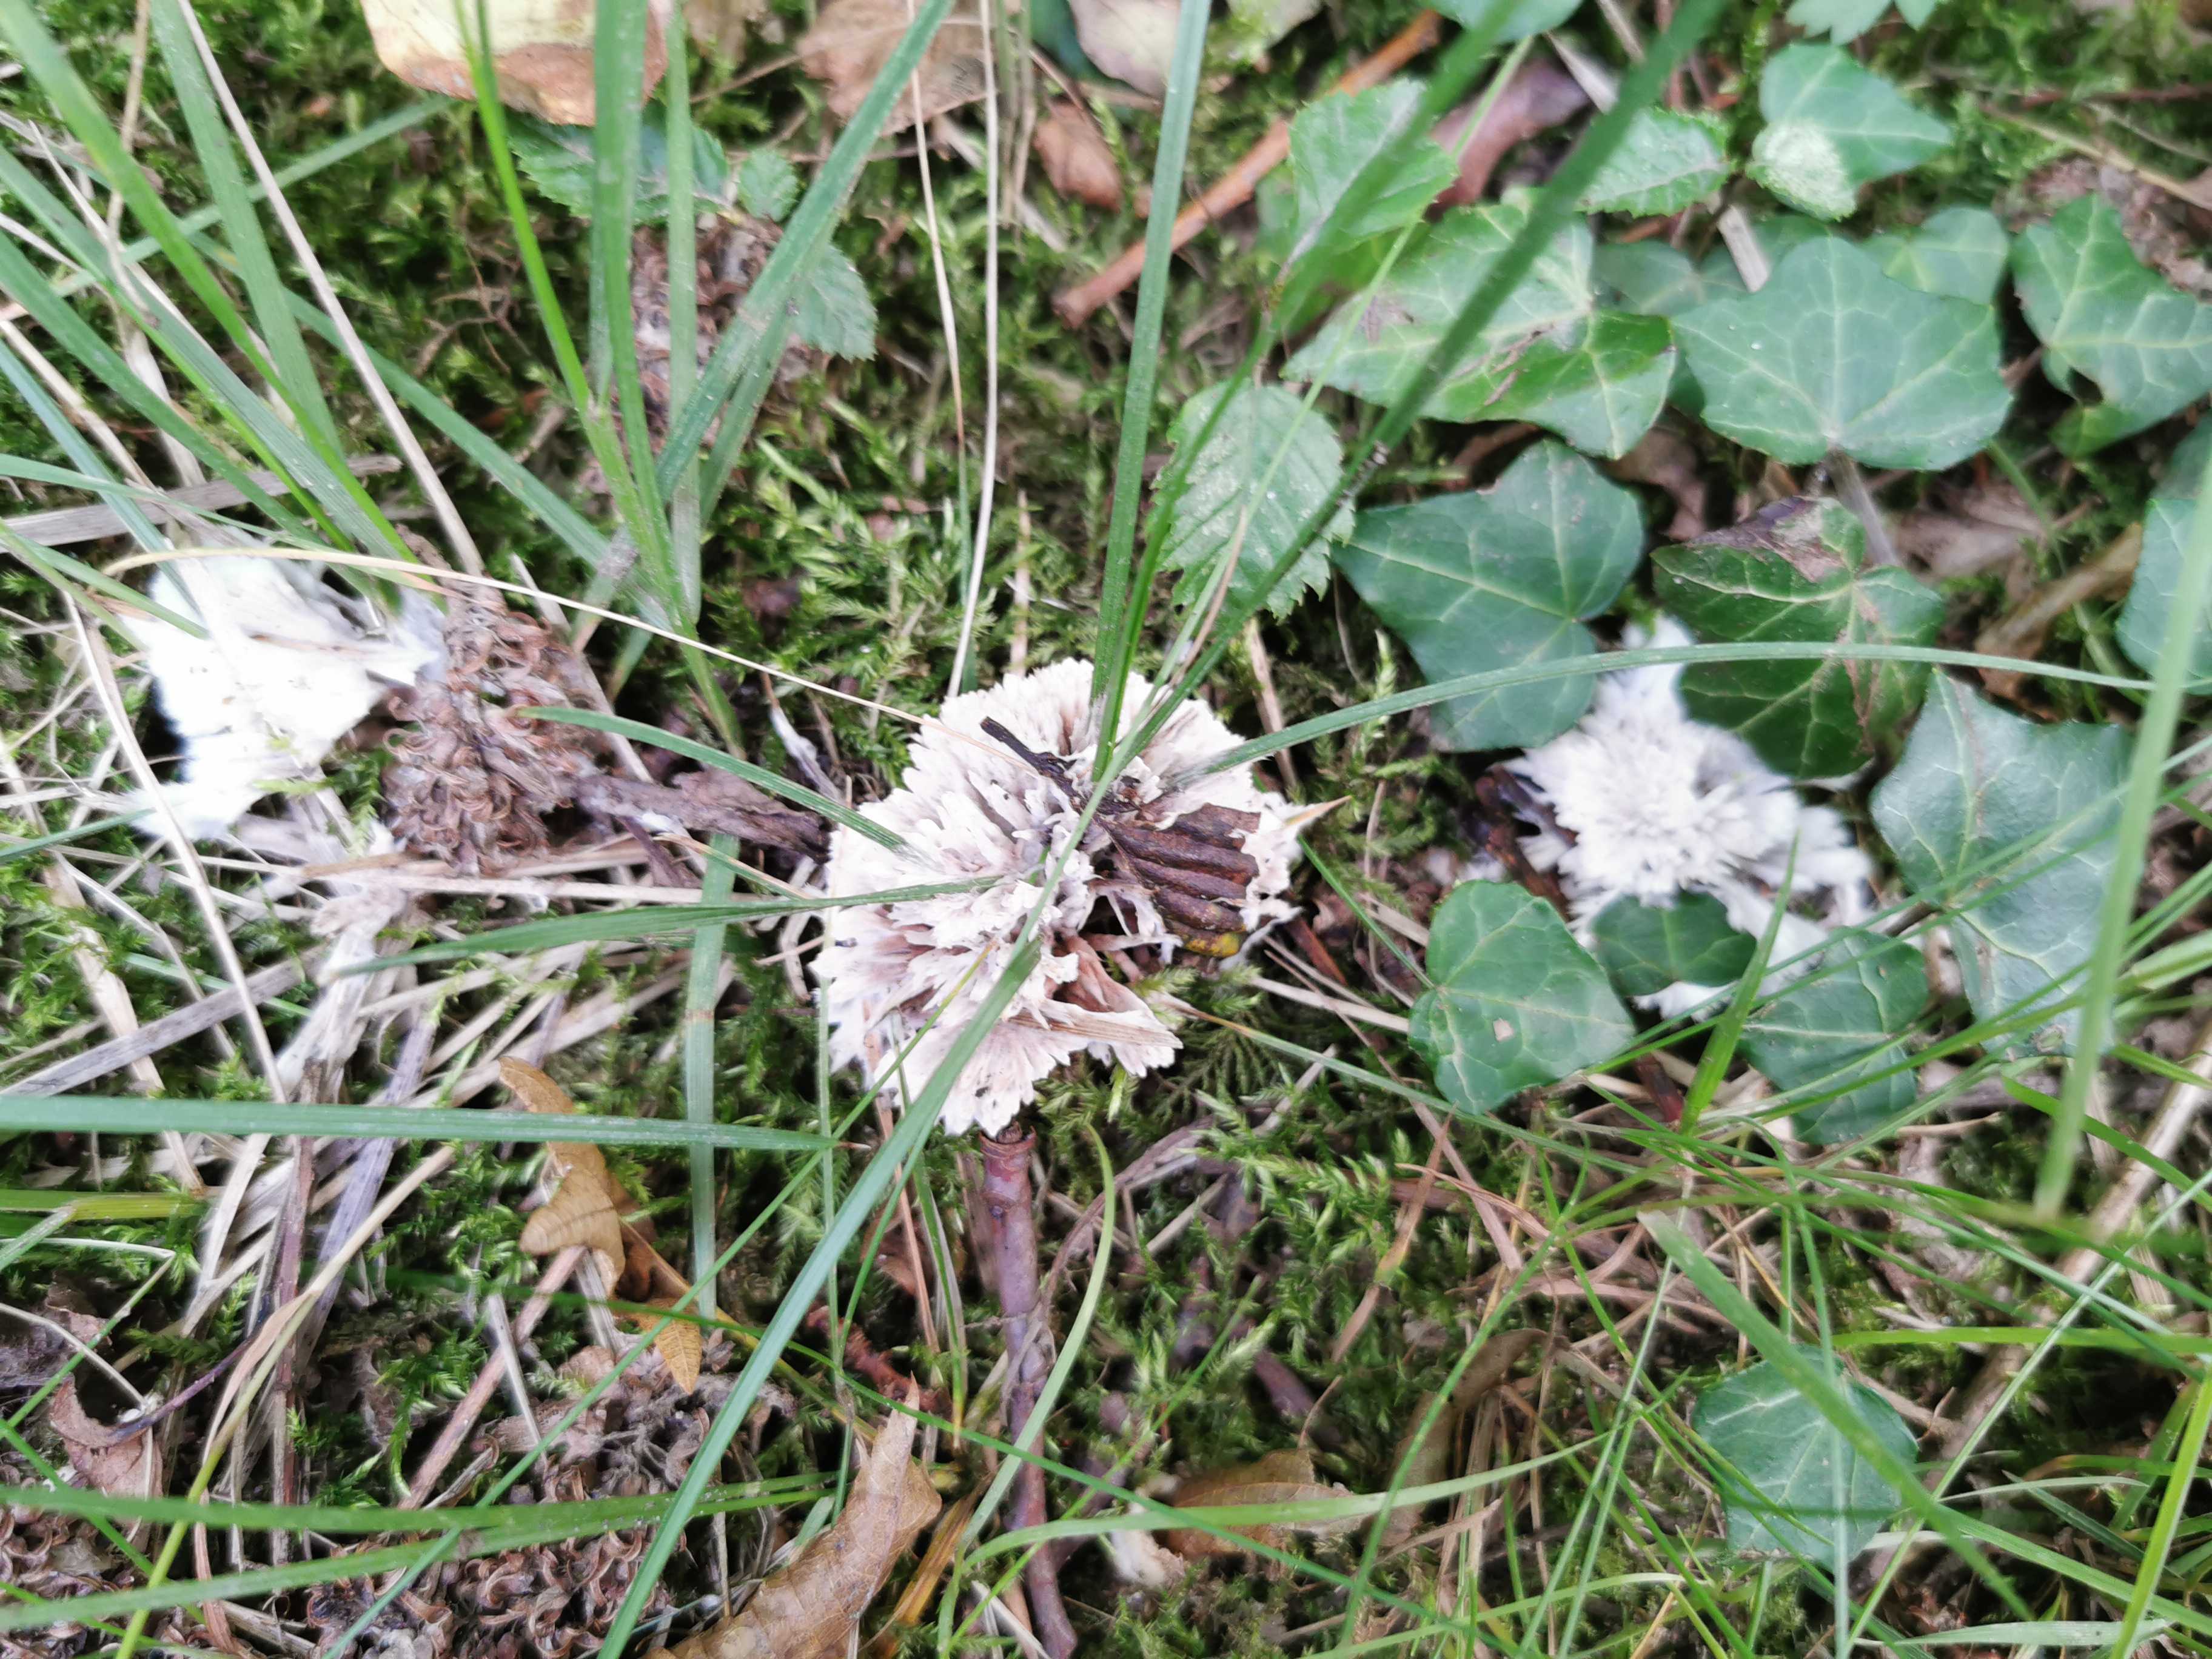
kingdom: Fungi
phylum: Basidiomycota
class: Agaricomycetes
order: Thelephorales
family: Thelephoraceae
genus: Thelephora
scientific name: Thelephora penicillata
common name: fladtrådt frynsesvamp
